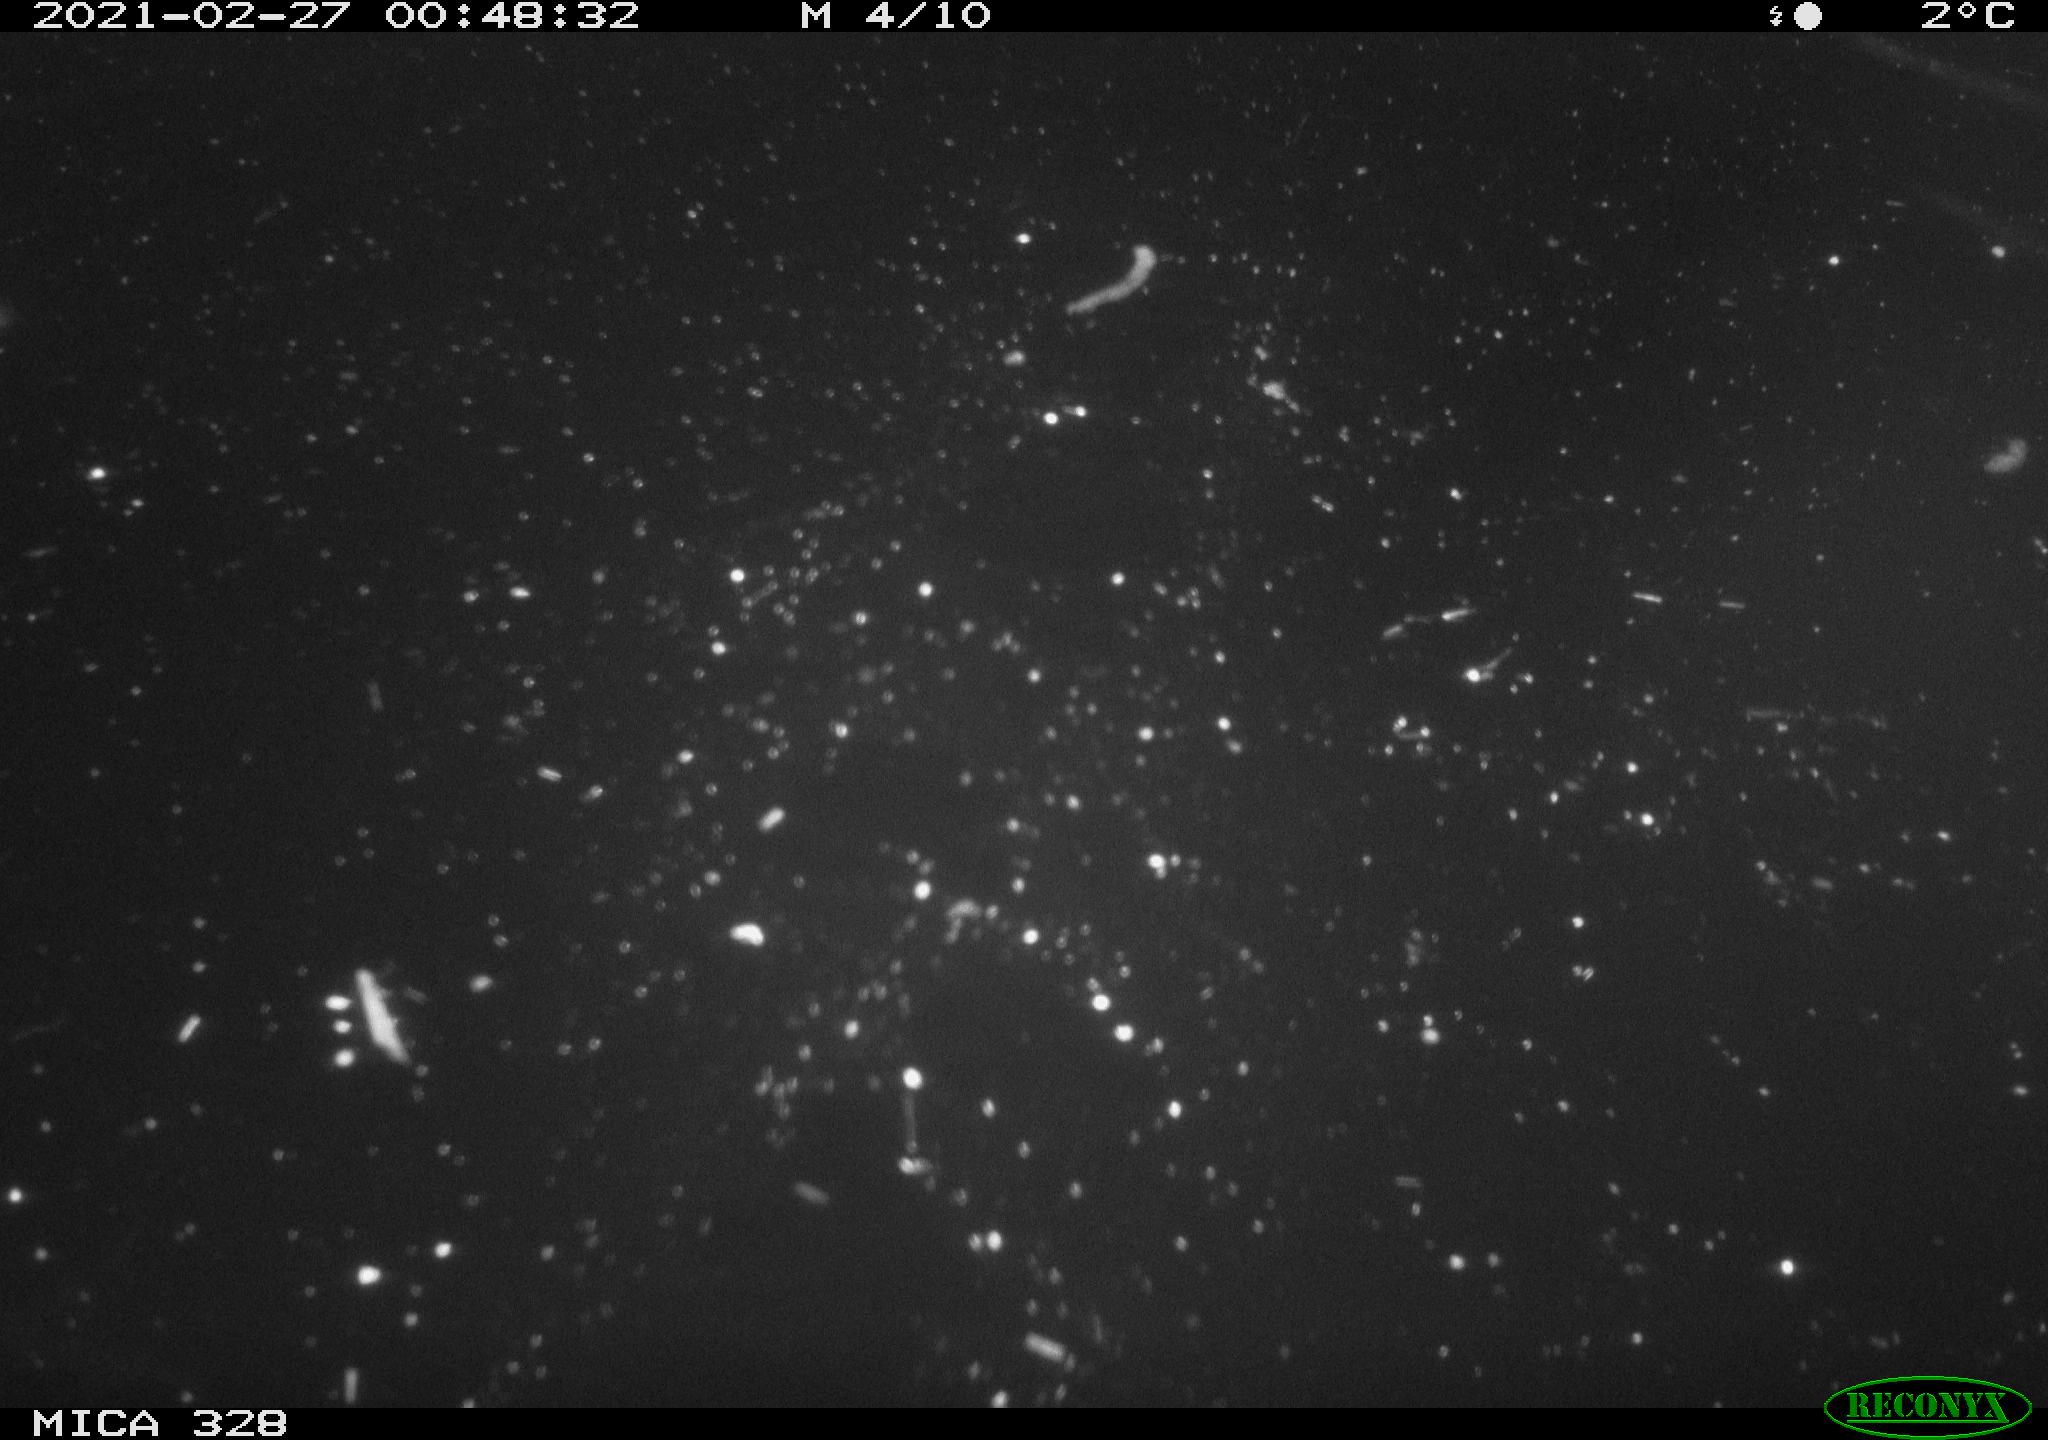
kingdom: Animalia
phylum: Chordata
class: Mammalia
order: Rodentia
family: Cricetidae
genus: Ondatra
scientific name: Ondatra zibethicus
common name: Muskrat
